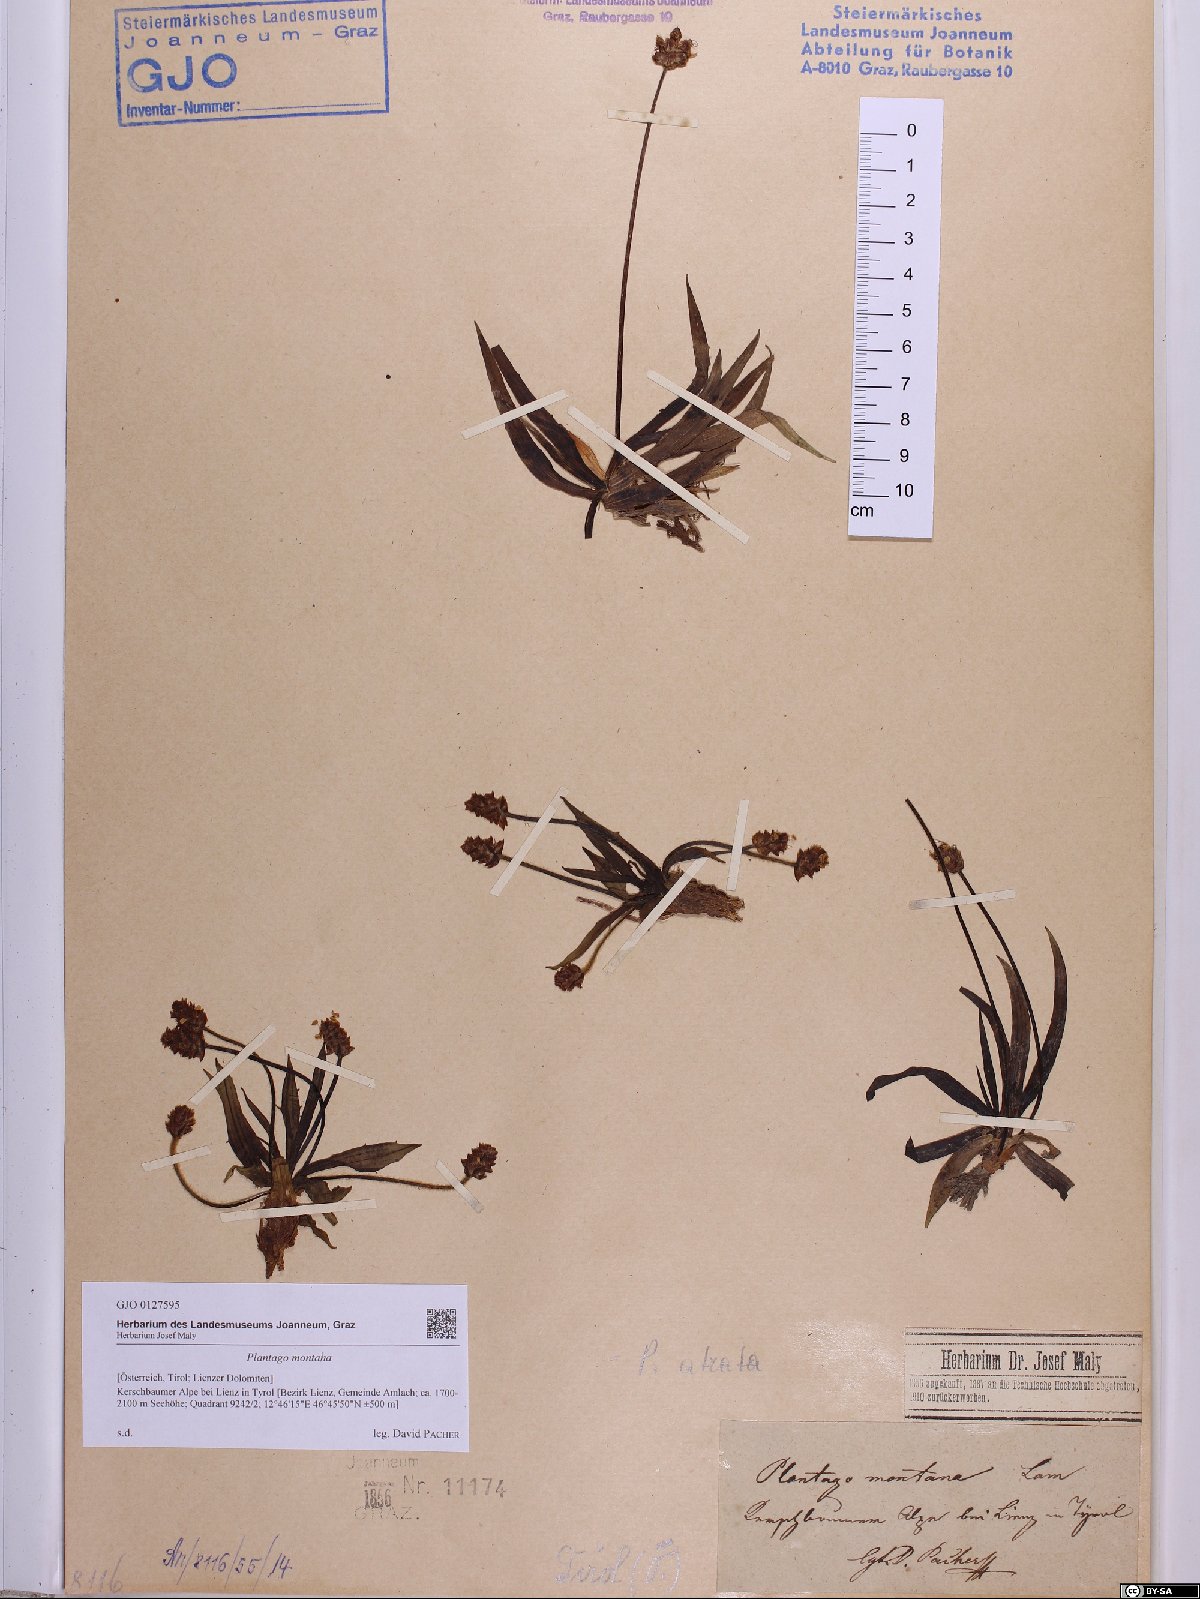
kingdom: Plantae
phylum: Tracheophyta
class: Magnoliopsida
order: Lamiales
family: Plantaginaceae
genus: Plantago
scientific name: Plantago atrata
